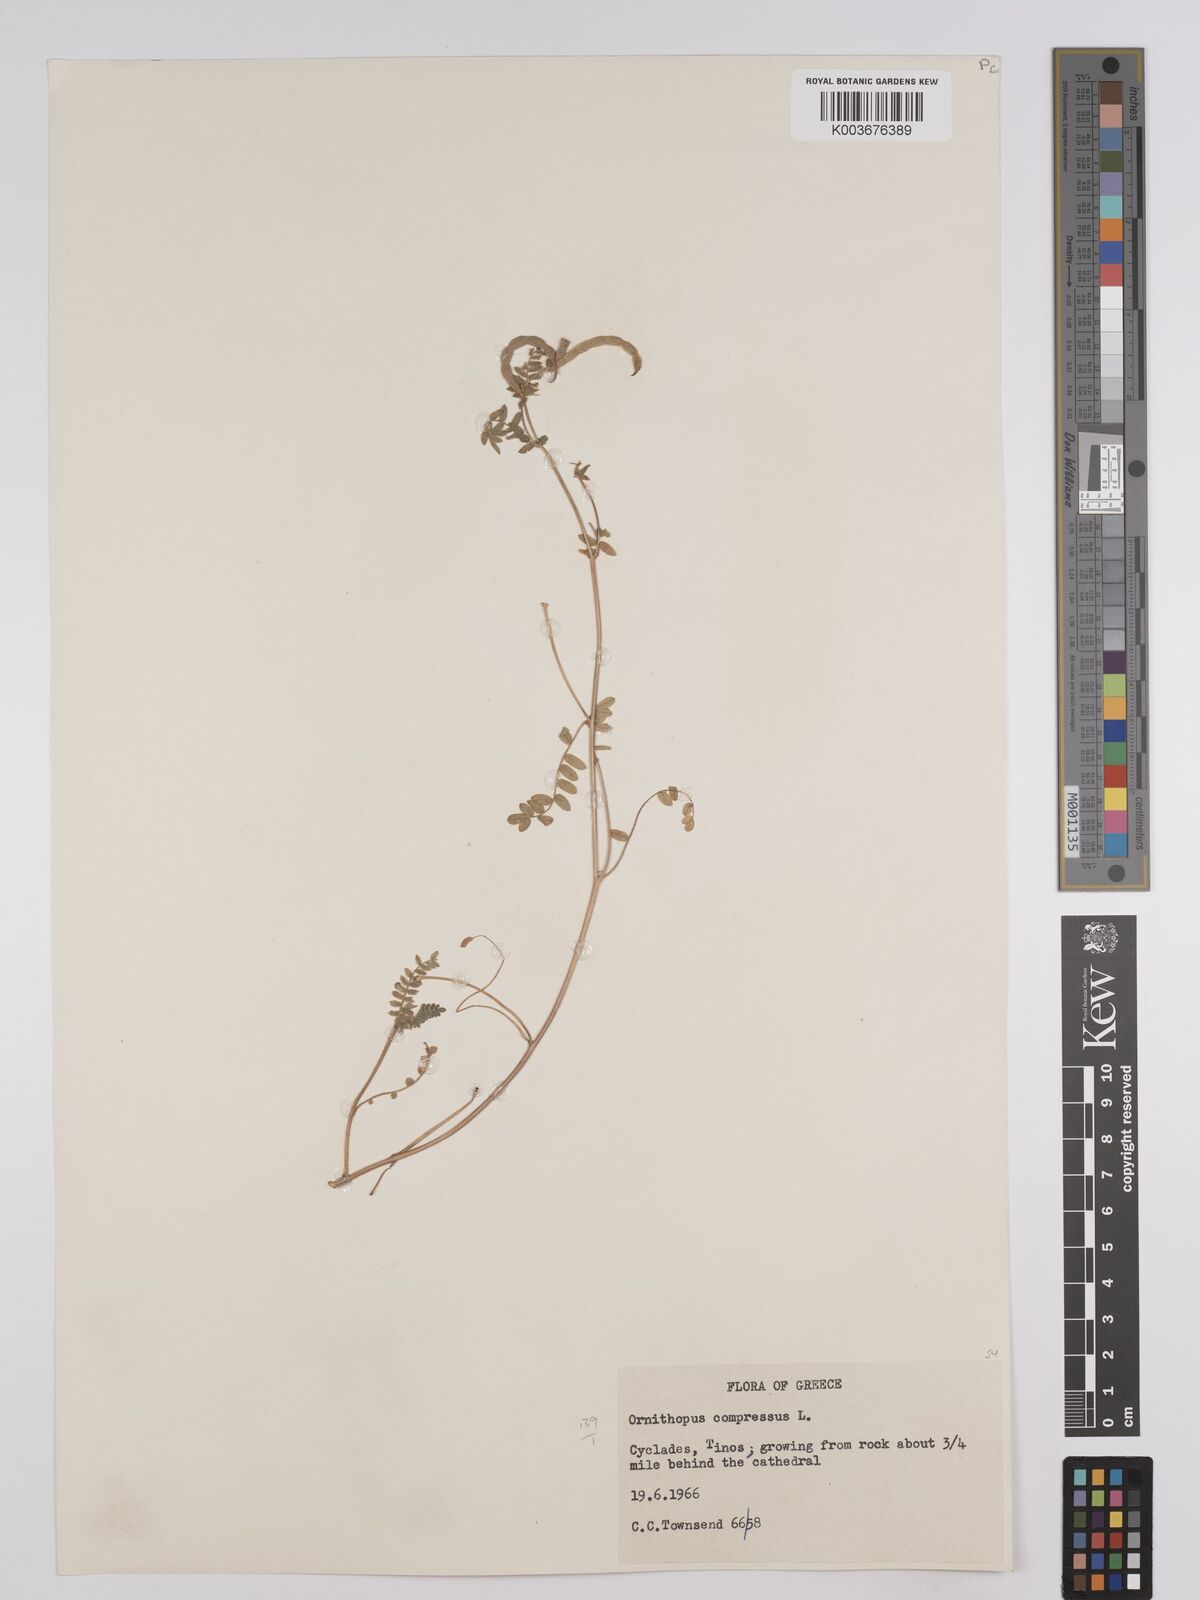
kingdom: Plantae
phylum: Tracheophyta
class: Magnoliopsida
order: Fabales
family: Fabaceae
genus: Ornithopus
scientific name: Ornithopus compressus
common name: Yellow serradella
